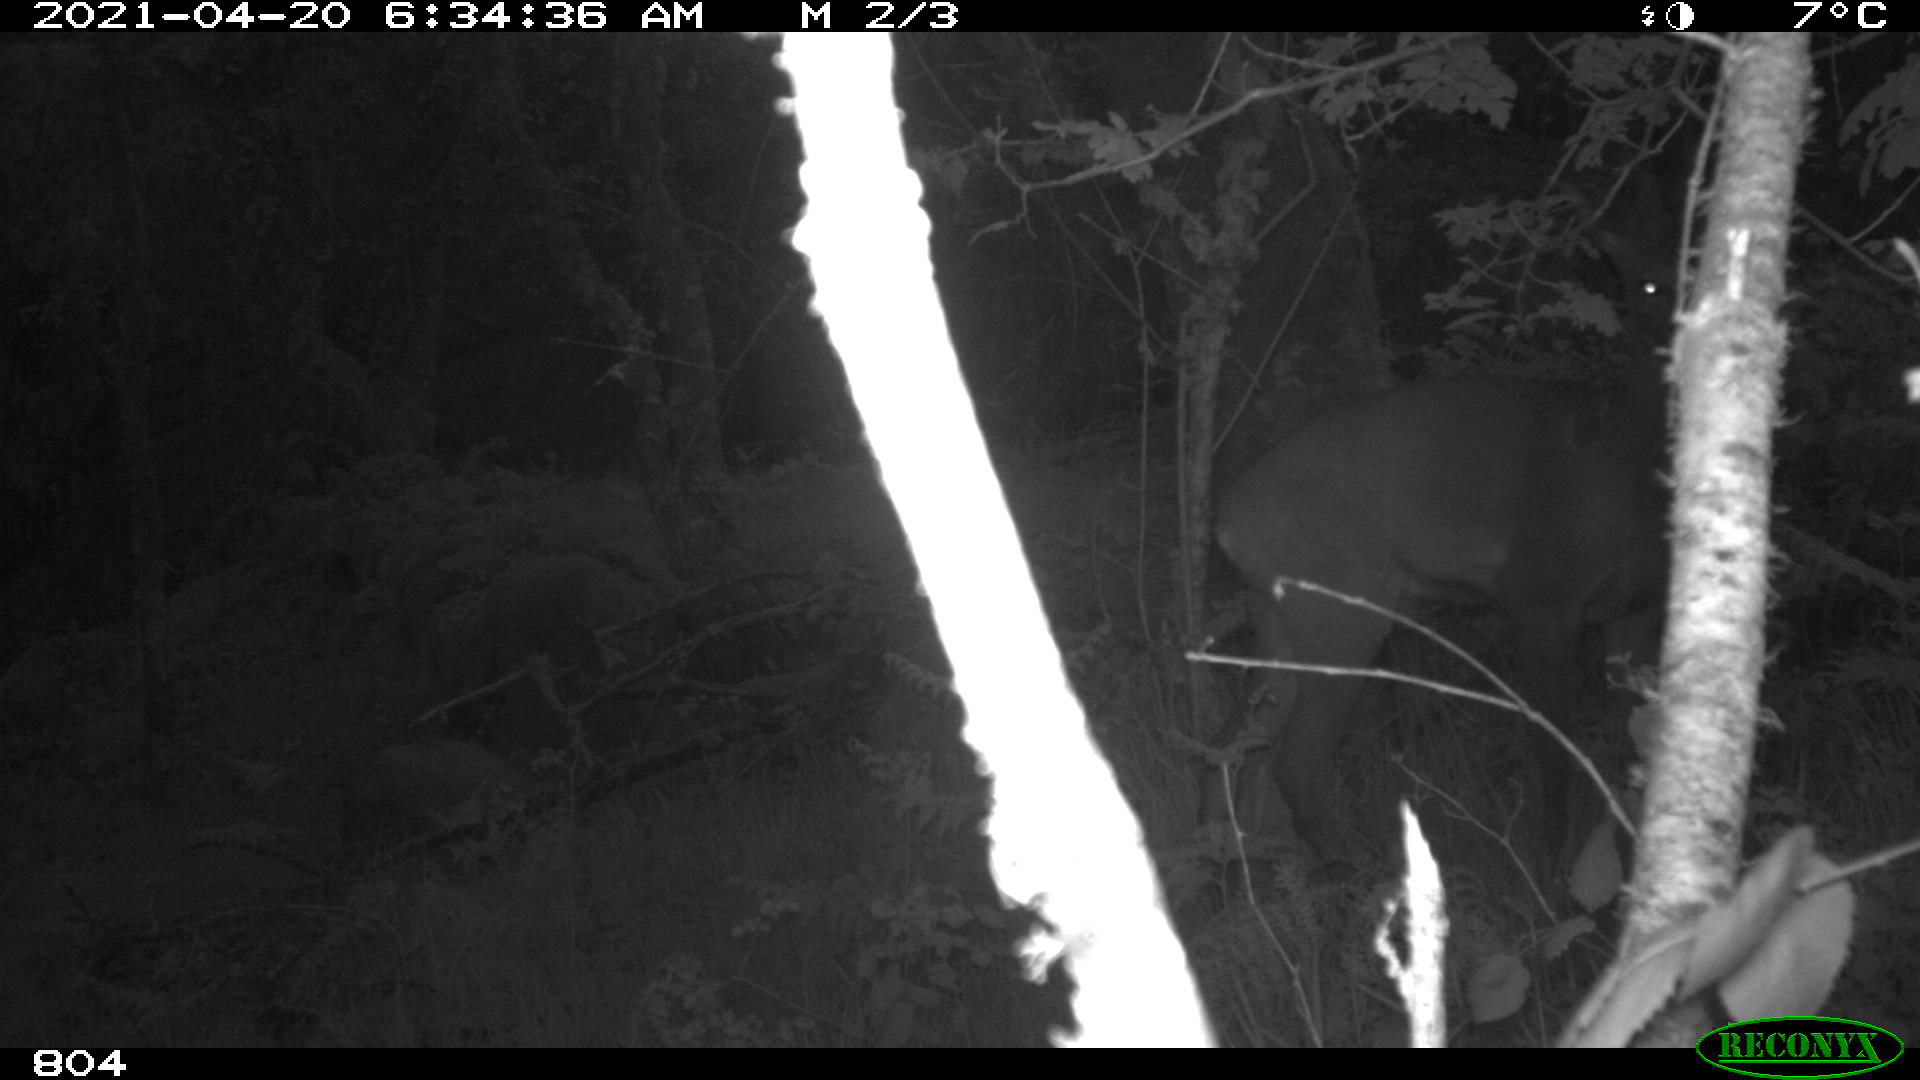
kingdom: Animalia
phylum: Chordata
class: Mammalia
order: Artiodactyla
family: Cervidae
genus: Capreolus
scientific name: Capreolus capreolus
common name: Western roe deer
